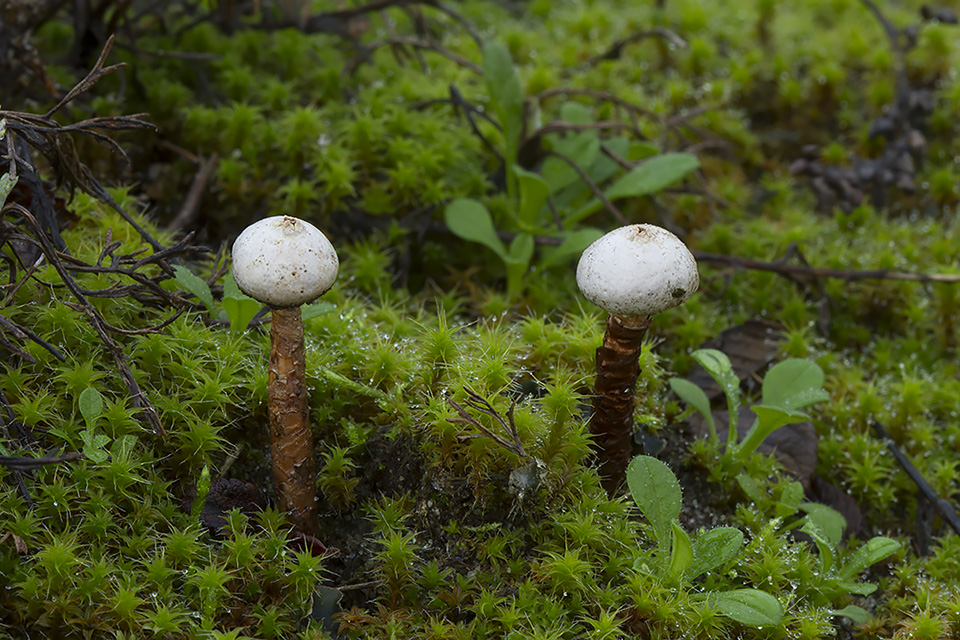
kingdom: Fungi
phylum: Basidiomycota
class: Agaricomycetes
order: Agaricales
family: Agaricaceae
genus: Tulostoma
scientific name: Tulostoma winterhoffii
